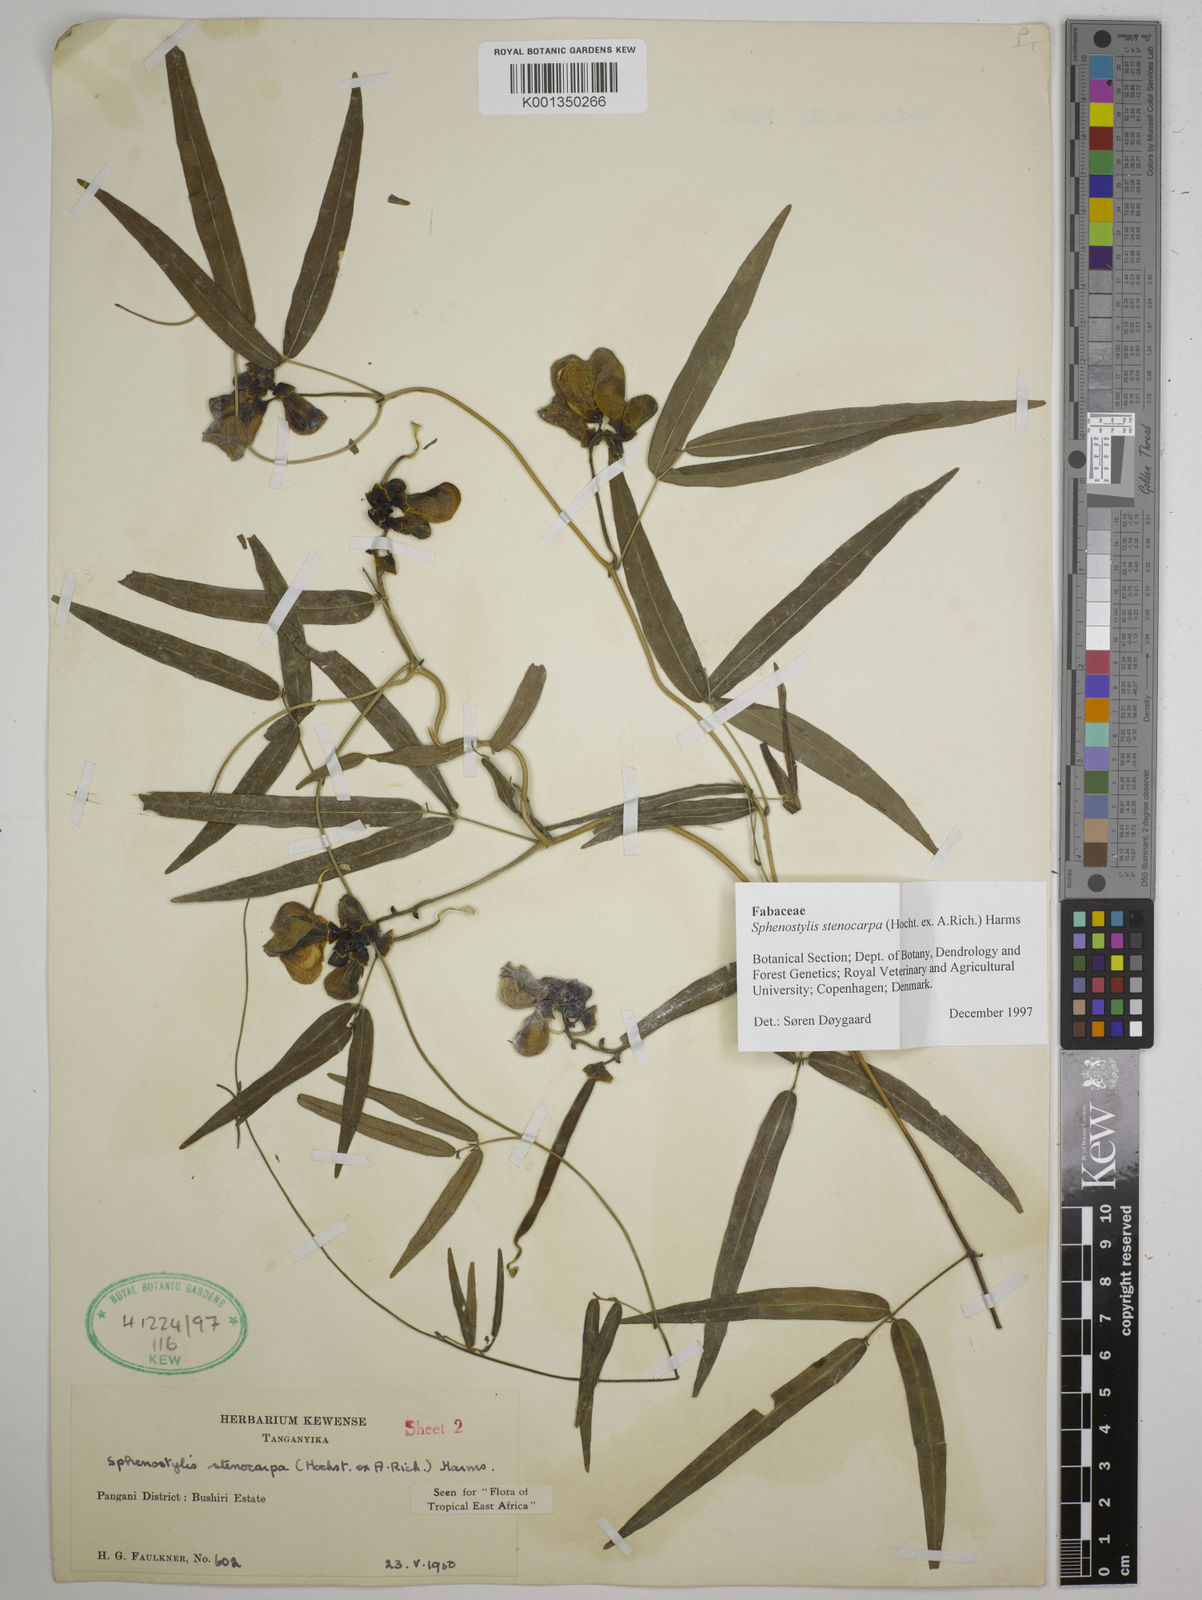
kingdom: Plantae
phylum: Tracheophyta
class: Magnoliopsida
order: Fabales
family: Fabaceae
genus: Sphenostylis
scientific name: Sphenostylis stenocarpa
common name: Yam-pea
